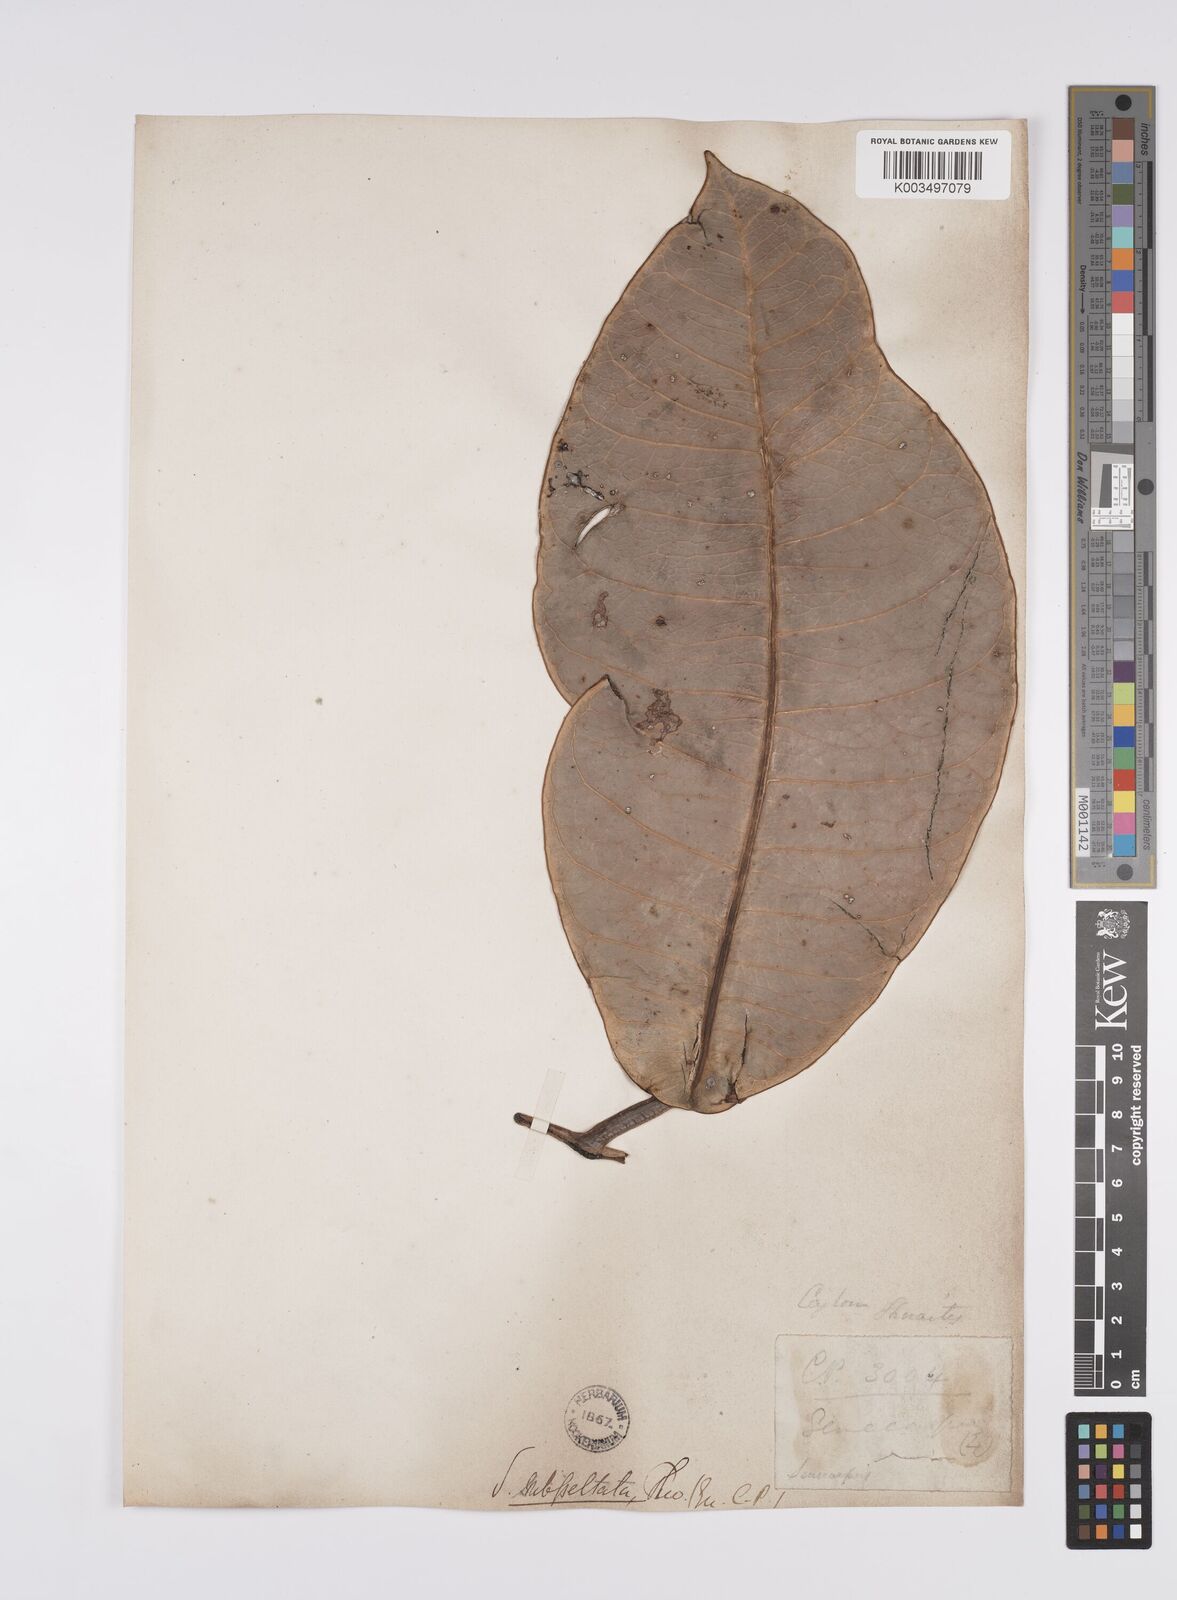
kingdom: Plantae
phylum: Tracheophyta
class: Magnoliopsida
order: Sapindales
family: Anacardiaceae
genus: Semecarpus
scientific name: Semecarpus subpeltatus
